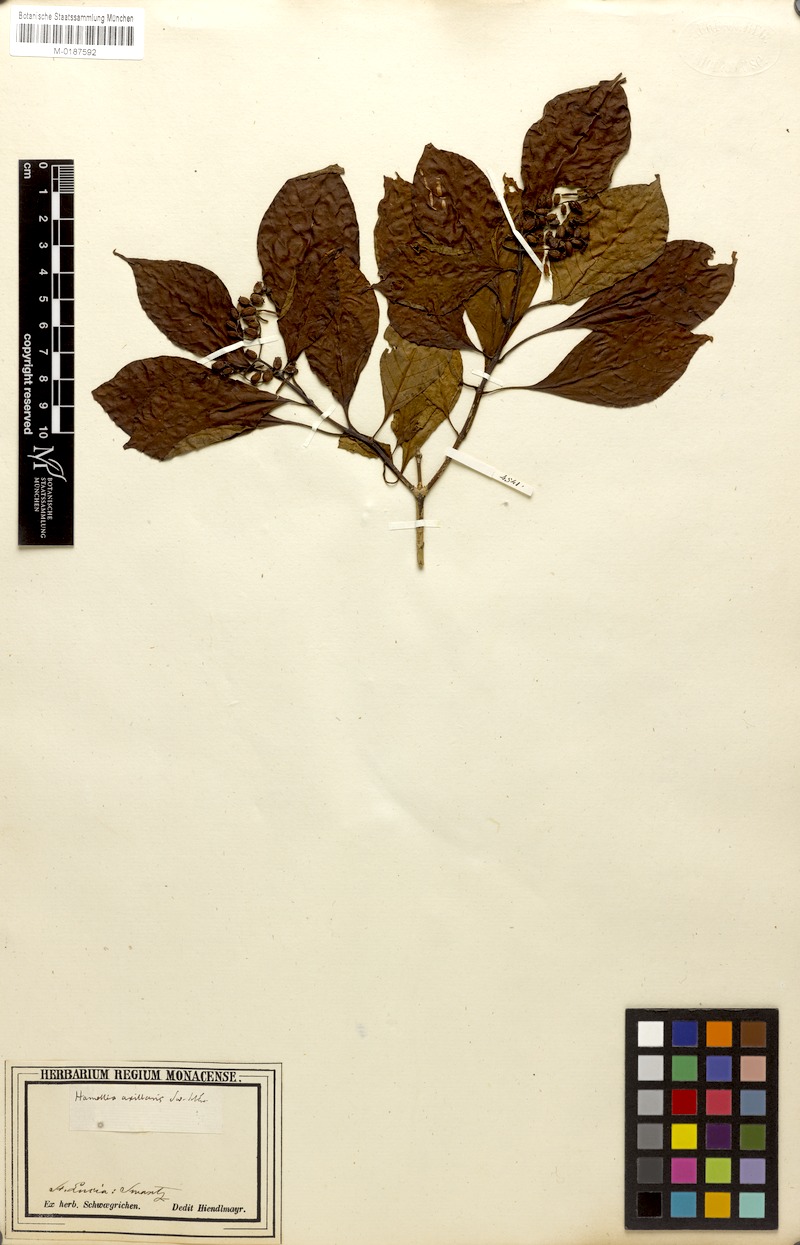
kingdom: Plantae
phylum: Tracheophyta
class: Magnoliopsida
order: Gentianales
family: Rubiaceae
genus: Hamelia
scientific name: Hamelia axillaris
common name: Balsamillo
